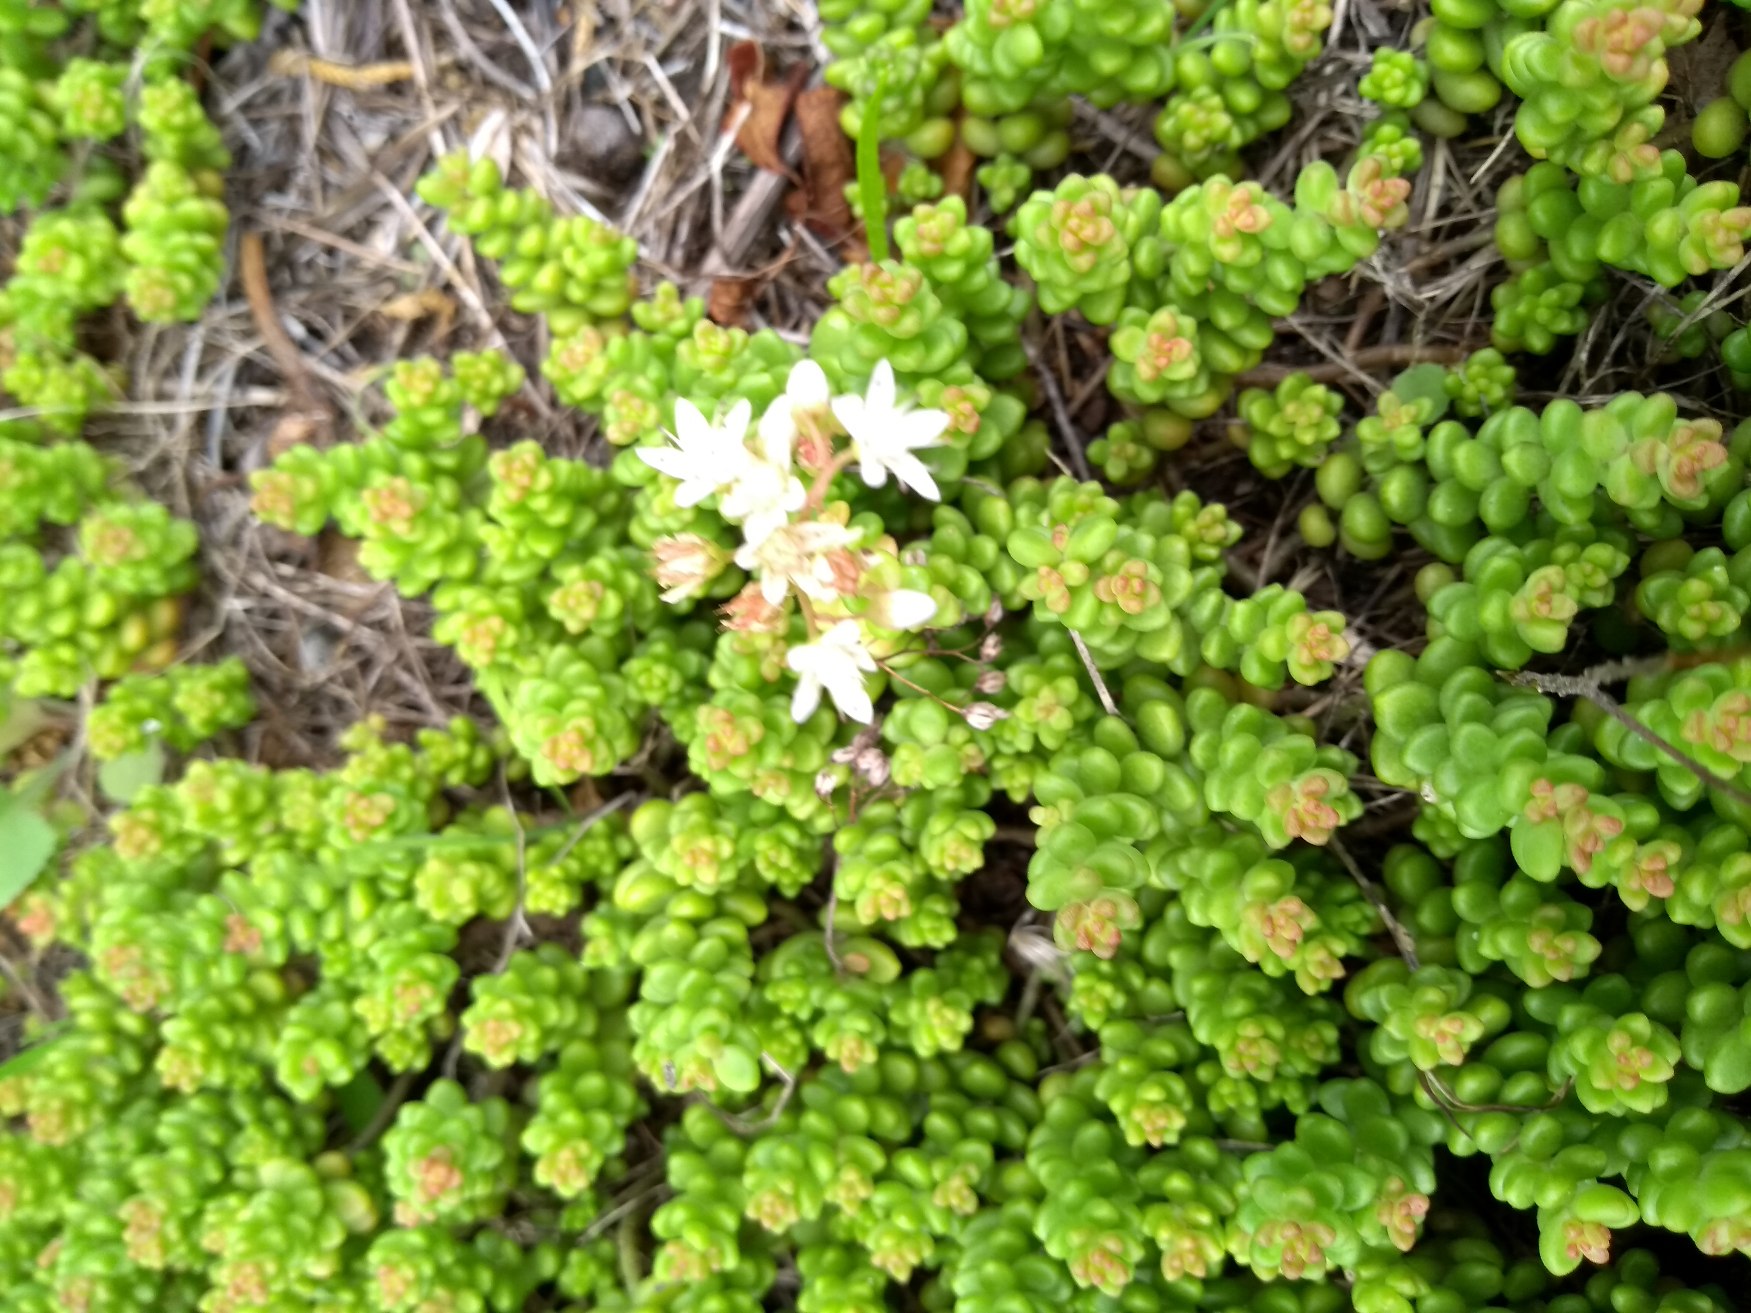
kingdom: Plantae
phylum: Tracheophyta
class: Magnoliopsida
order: Saxifragales
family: Crassulaceae
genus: Sedum
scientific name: Sedum album
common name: Hvid stenurt
